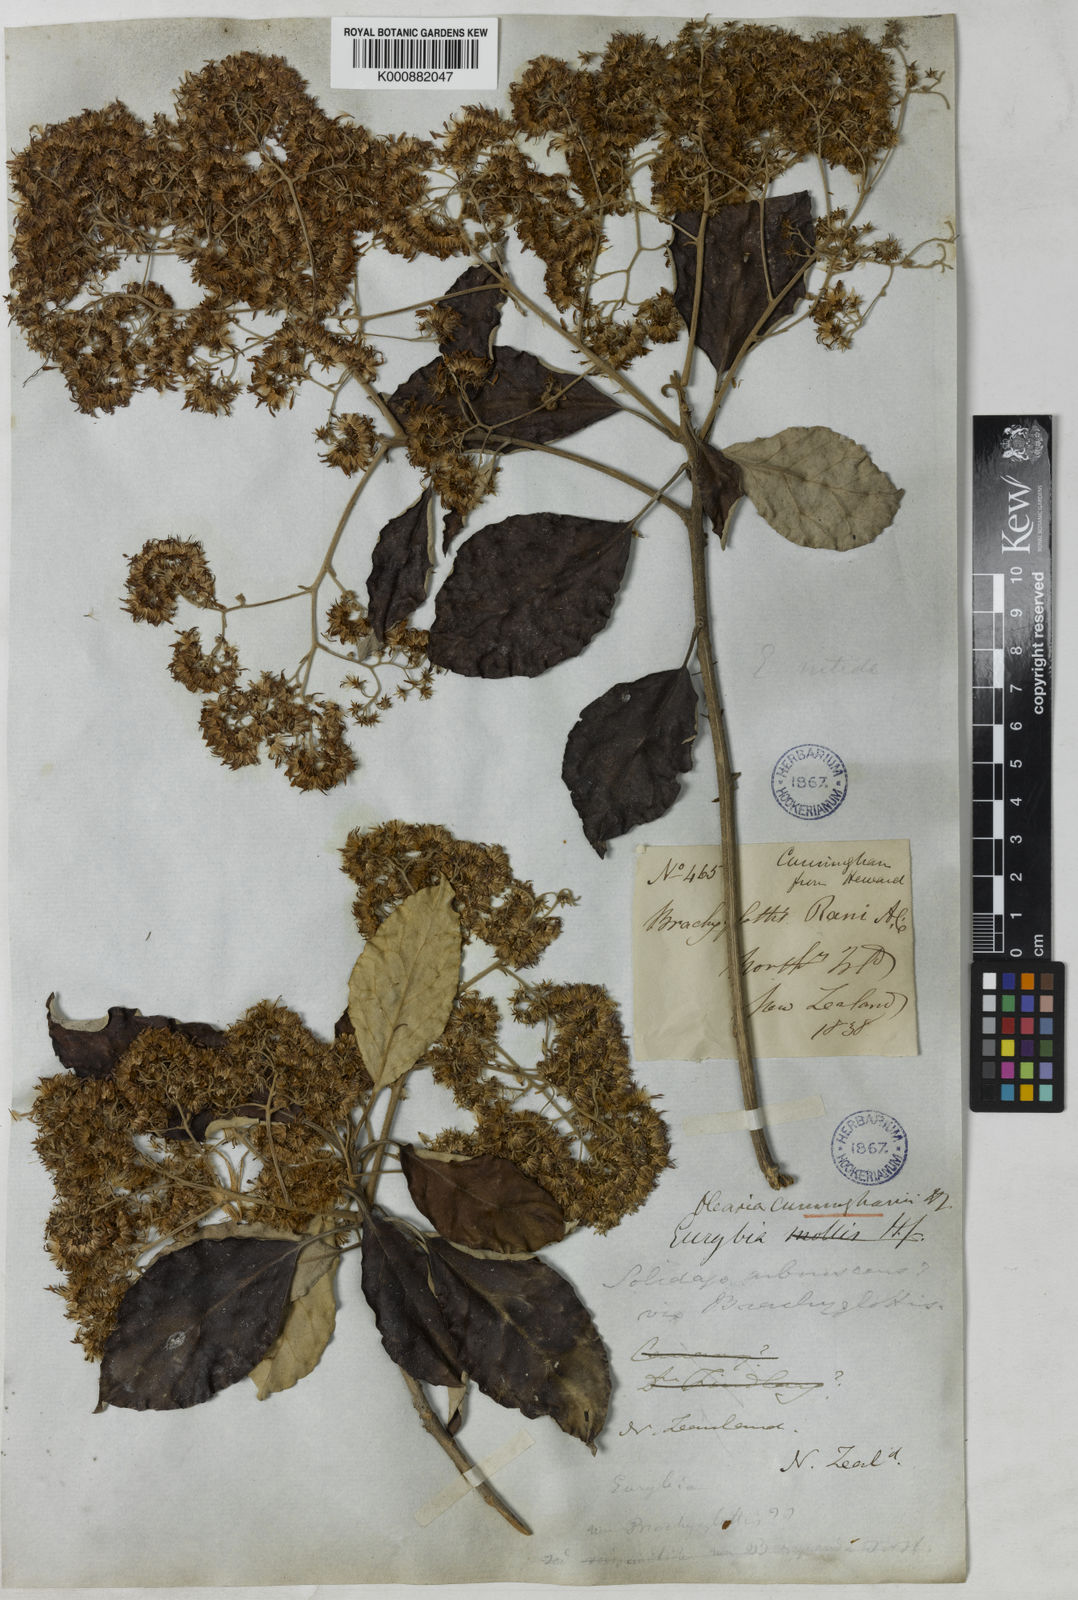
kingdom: Plantae
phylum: Tracheophyta
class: Magnoliopsida
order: Asterales
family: Asteraceae
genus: Olearia
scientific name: Olearia ilicifolia
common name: Maori-holly
